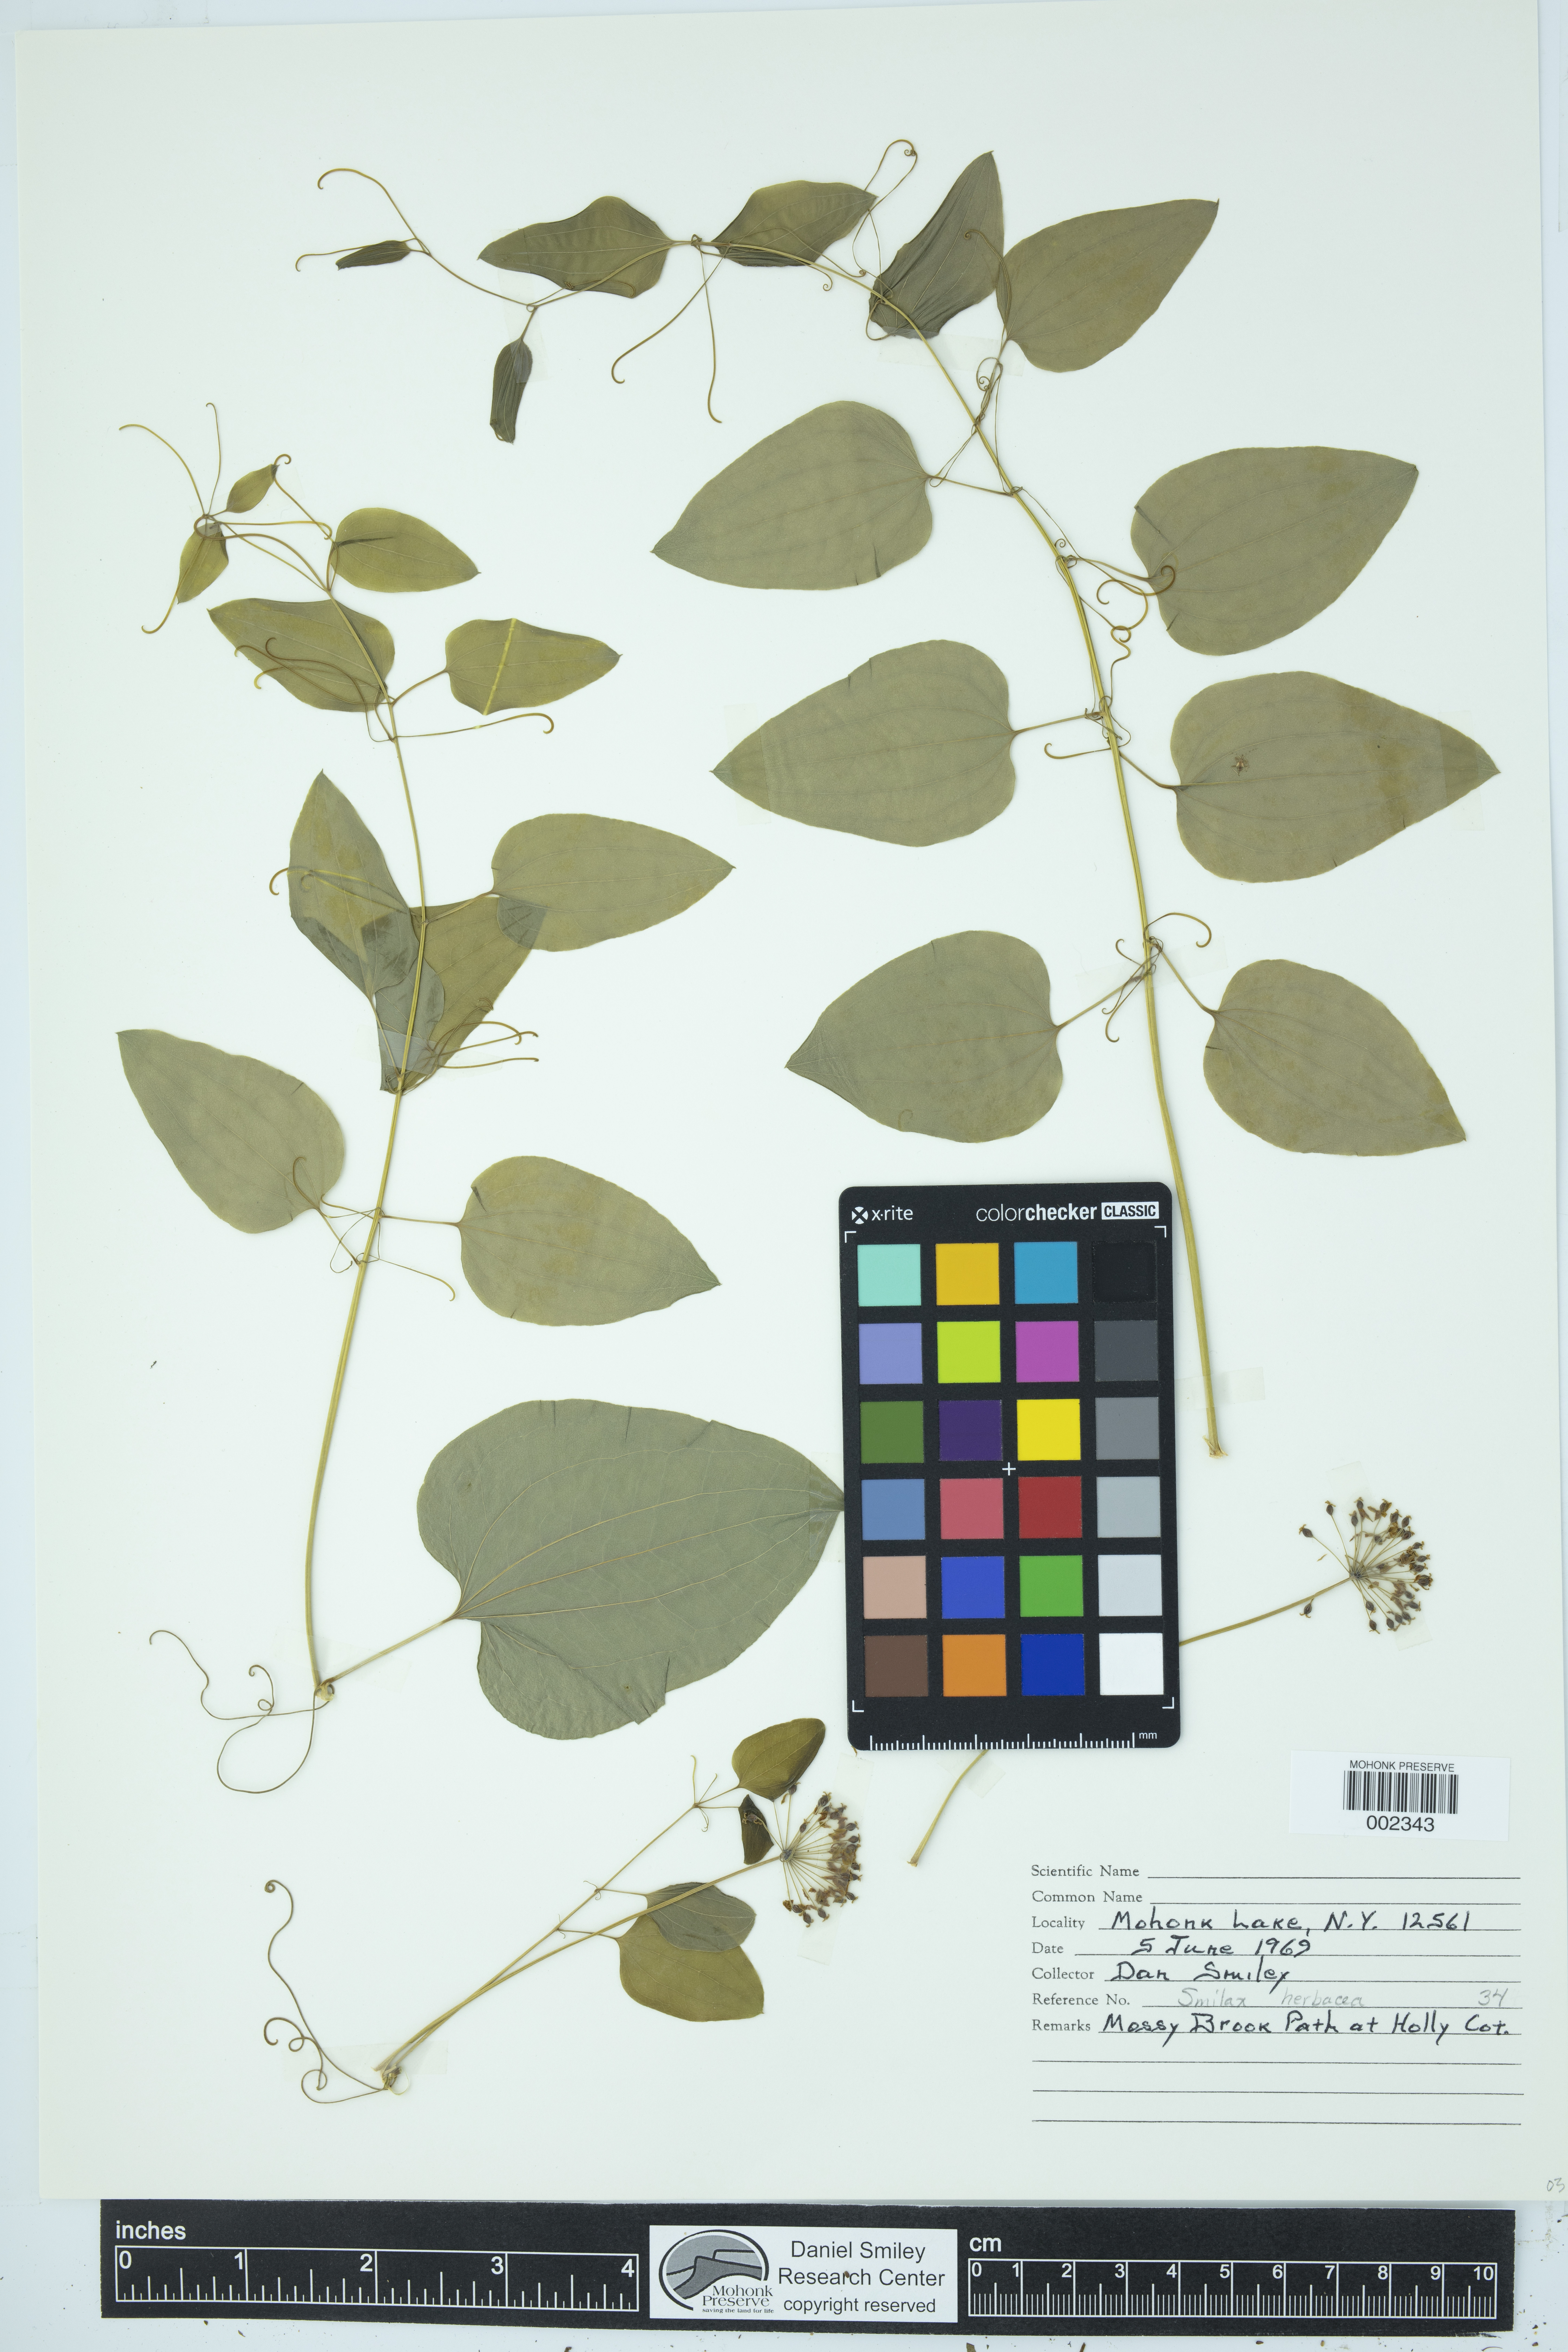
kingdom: Plantae
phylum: Tracheophyta
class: Liliopsida
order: Liliales
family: Smilacaceae
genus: Smilax
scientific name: Smilax herbacea
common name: Jacob's-ladder
